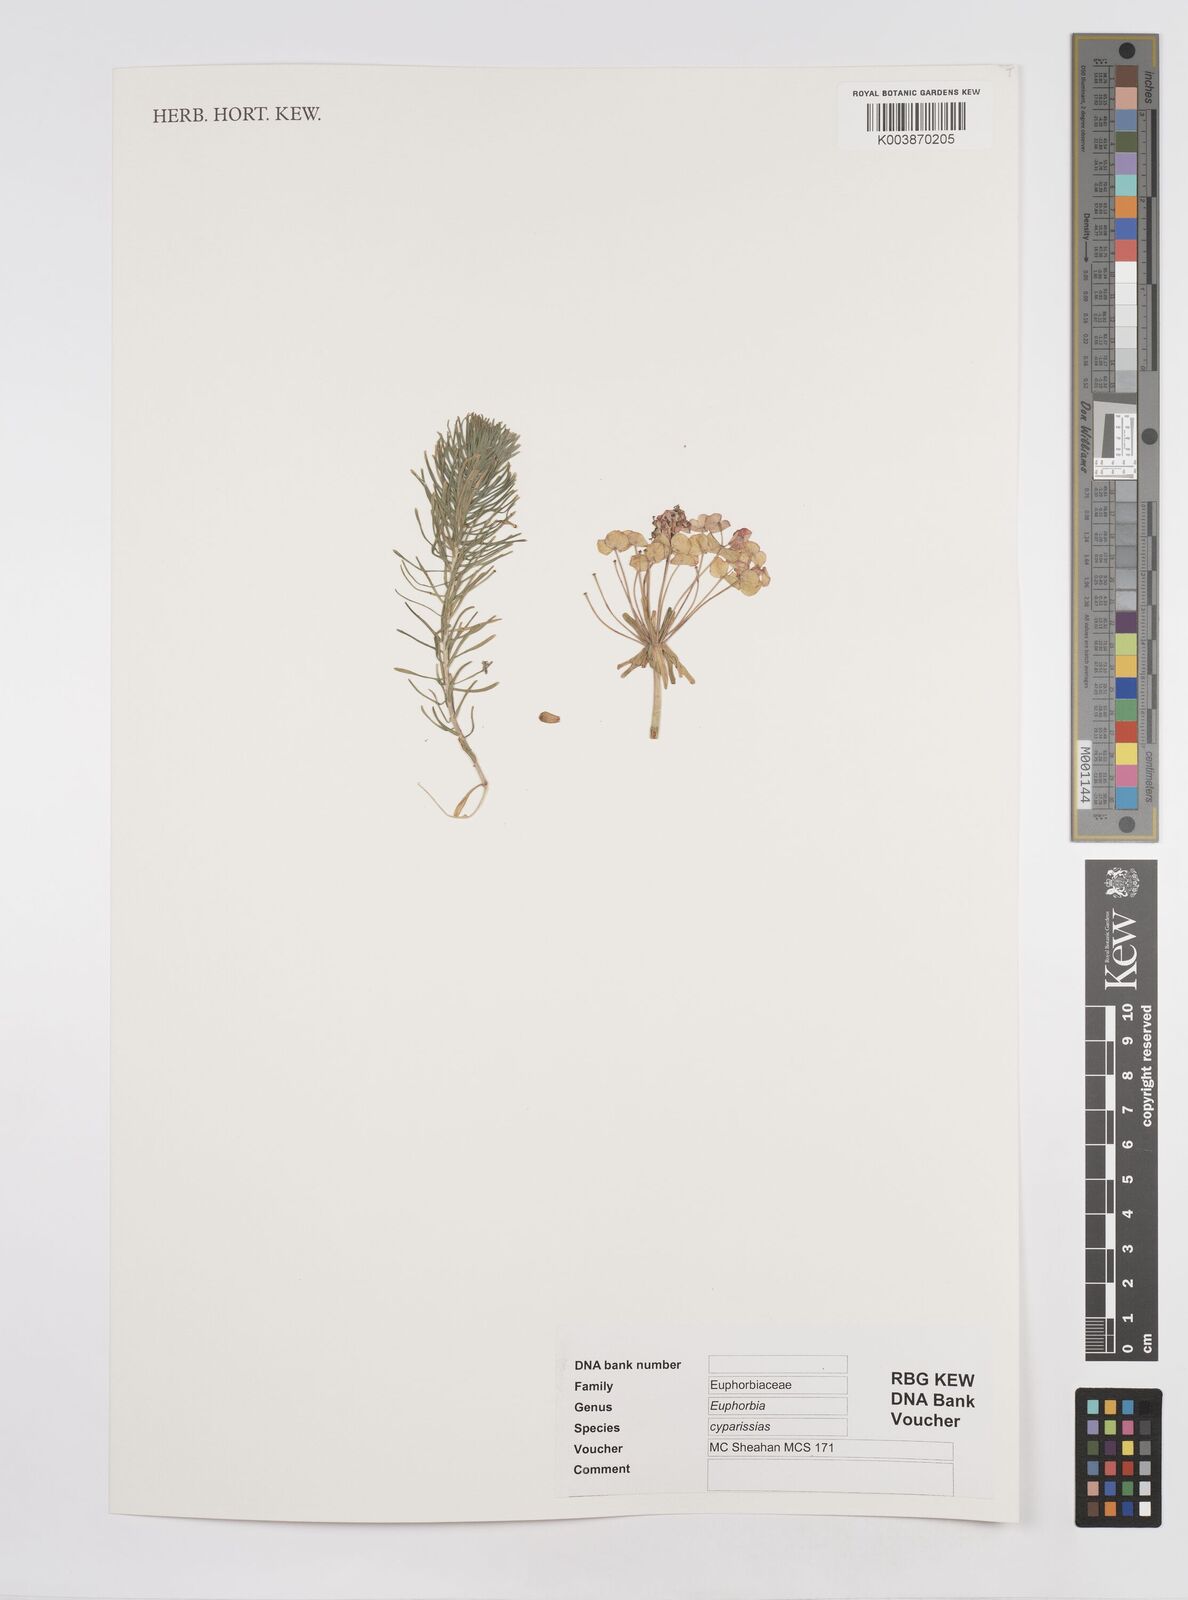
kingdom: Plantae
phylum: Tracheophyta
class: Magnoliopsida
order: Malpighiales
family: Euphorbiaceae
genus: Euphorbia
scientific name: Euphorbia cyparissias
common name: Cypress spurge
